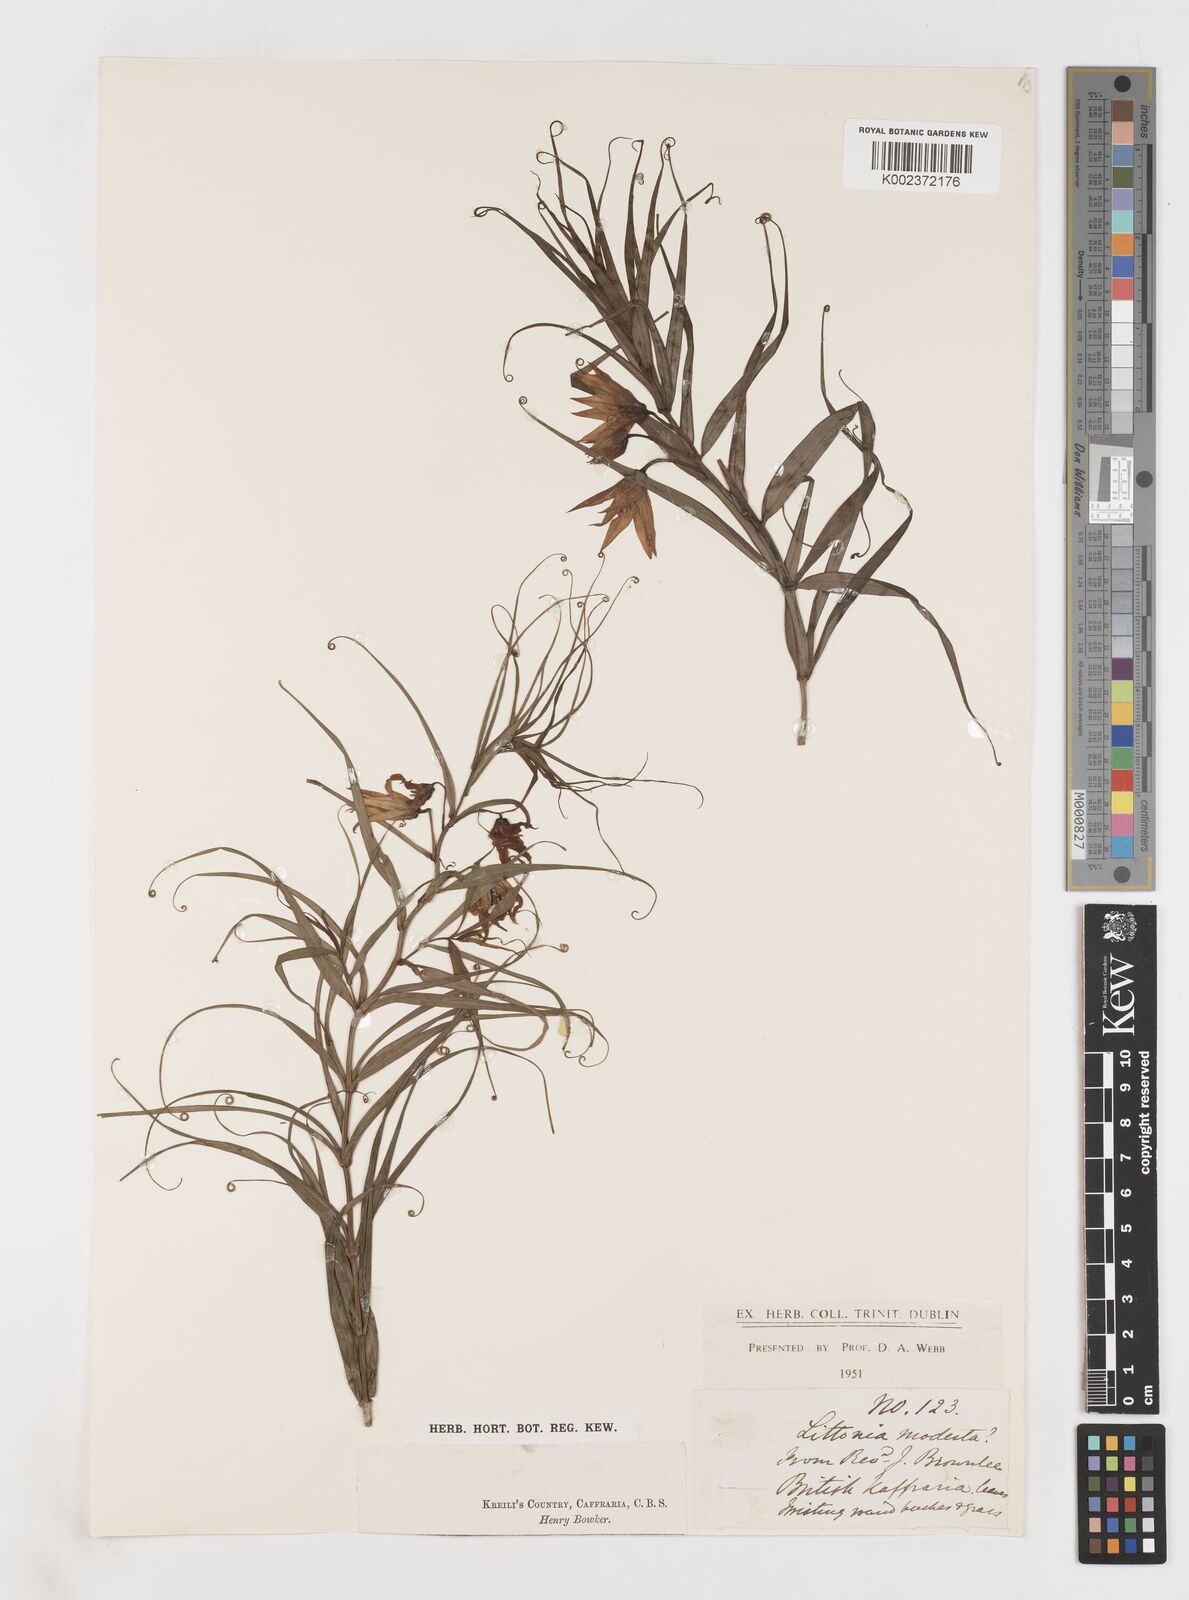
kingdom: Plantae
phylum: Tracheophyta
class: Liliopsida
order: Liliales
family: Colchicaceae
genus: Gloriosa
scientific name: Gloriosa modesta
